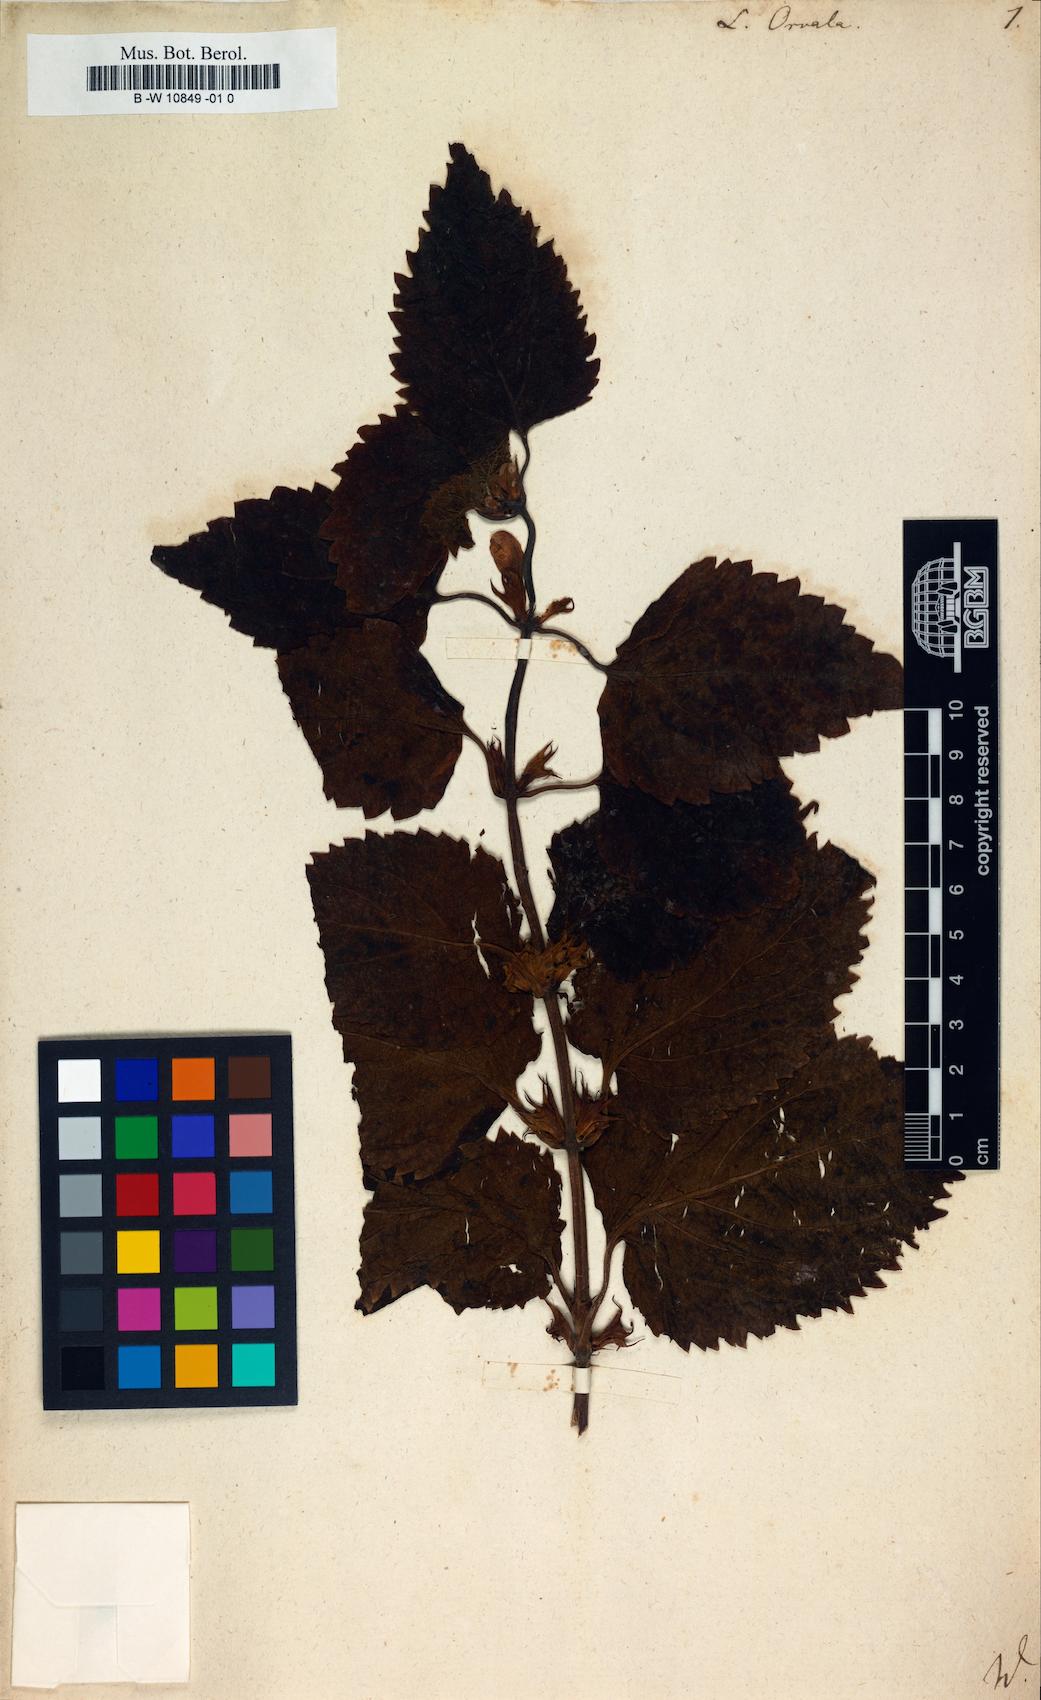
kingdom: Plantae
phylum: Tracheophyta
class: Magnoliopsida
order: Lamiales
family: Lamiaceae
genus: Lamium
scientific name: Lamium orvala
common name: Balm-leaved archangel
